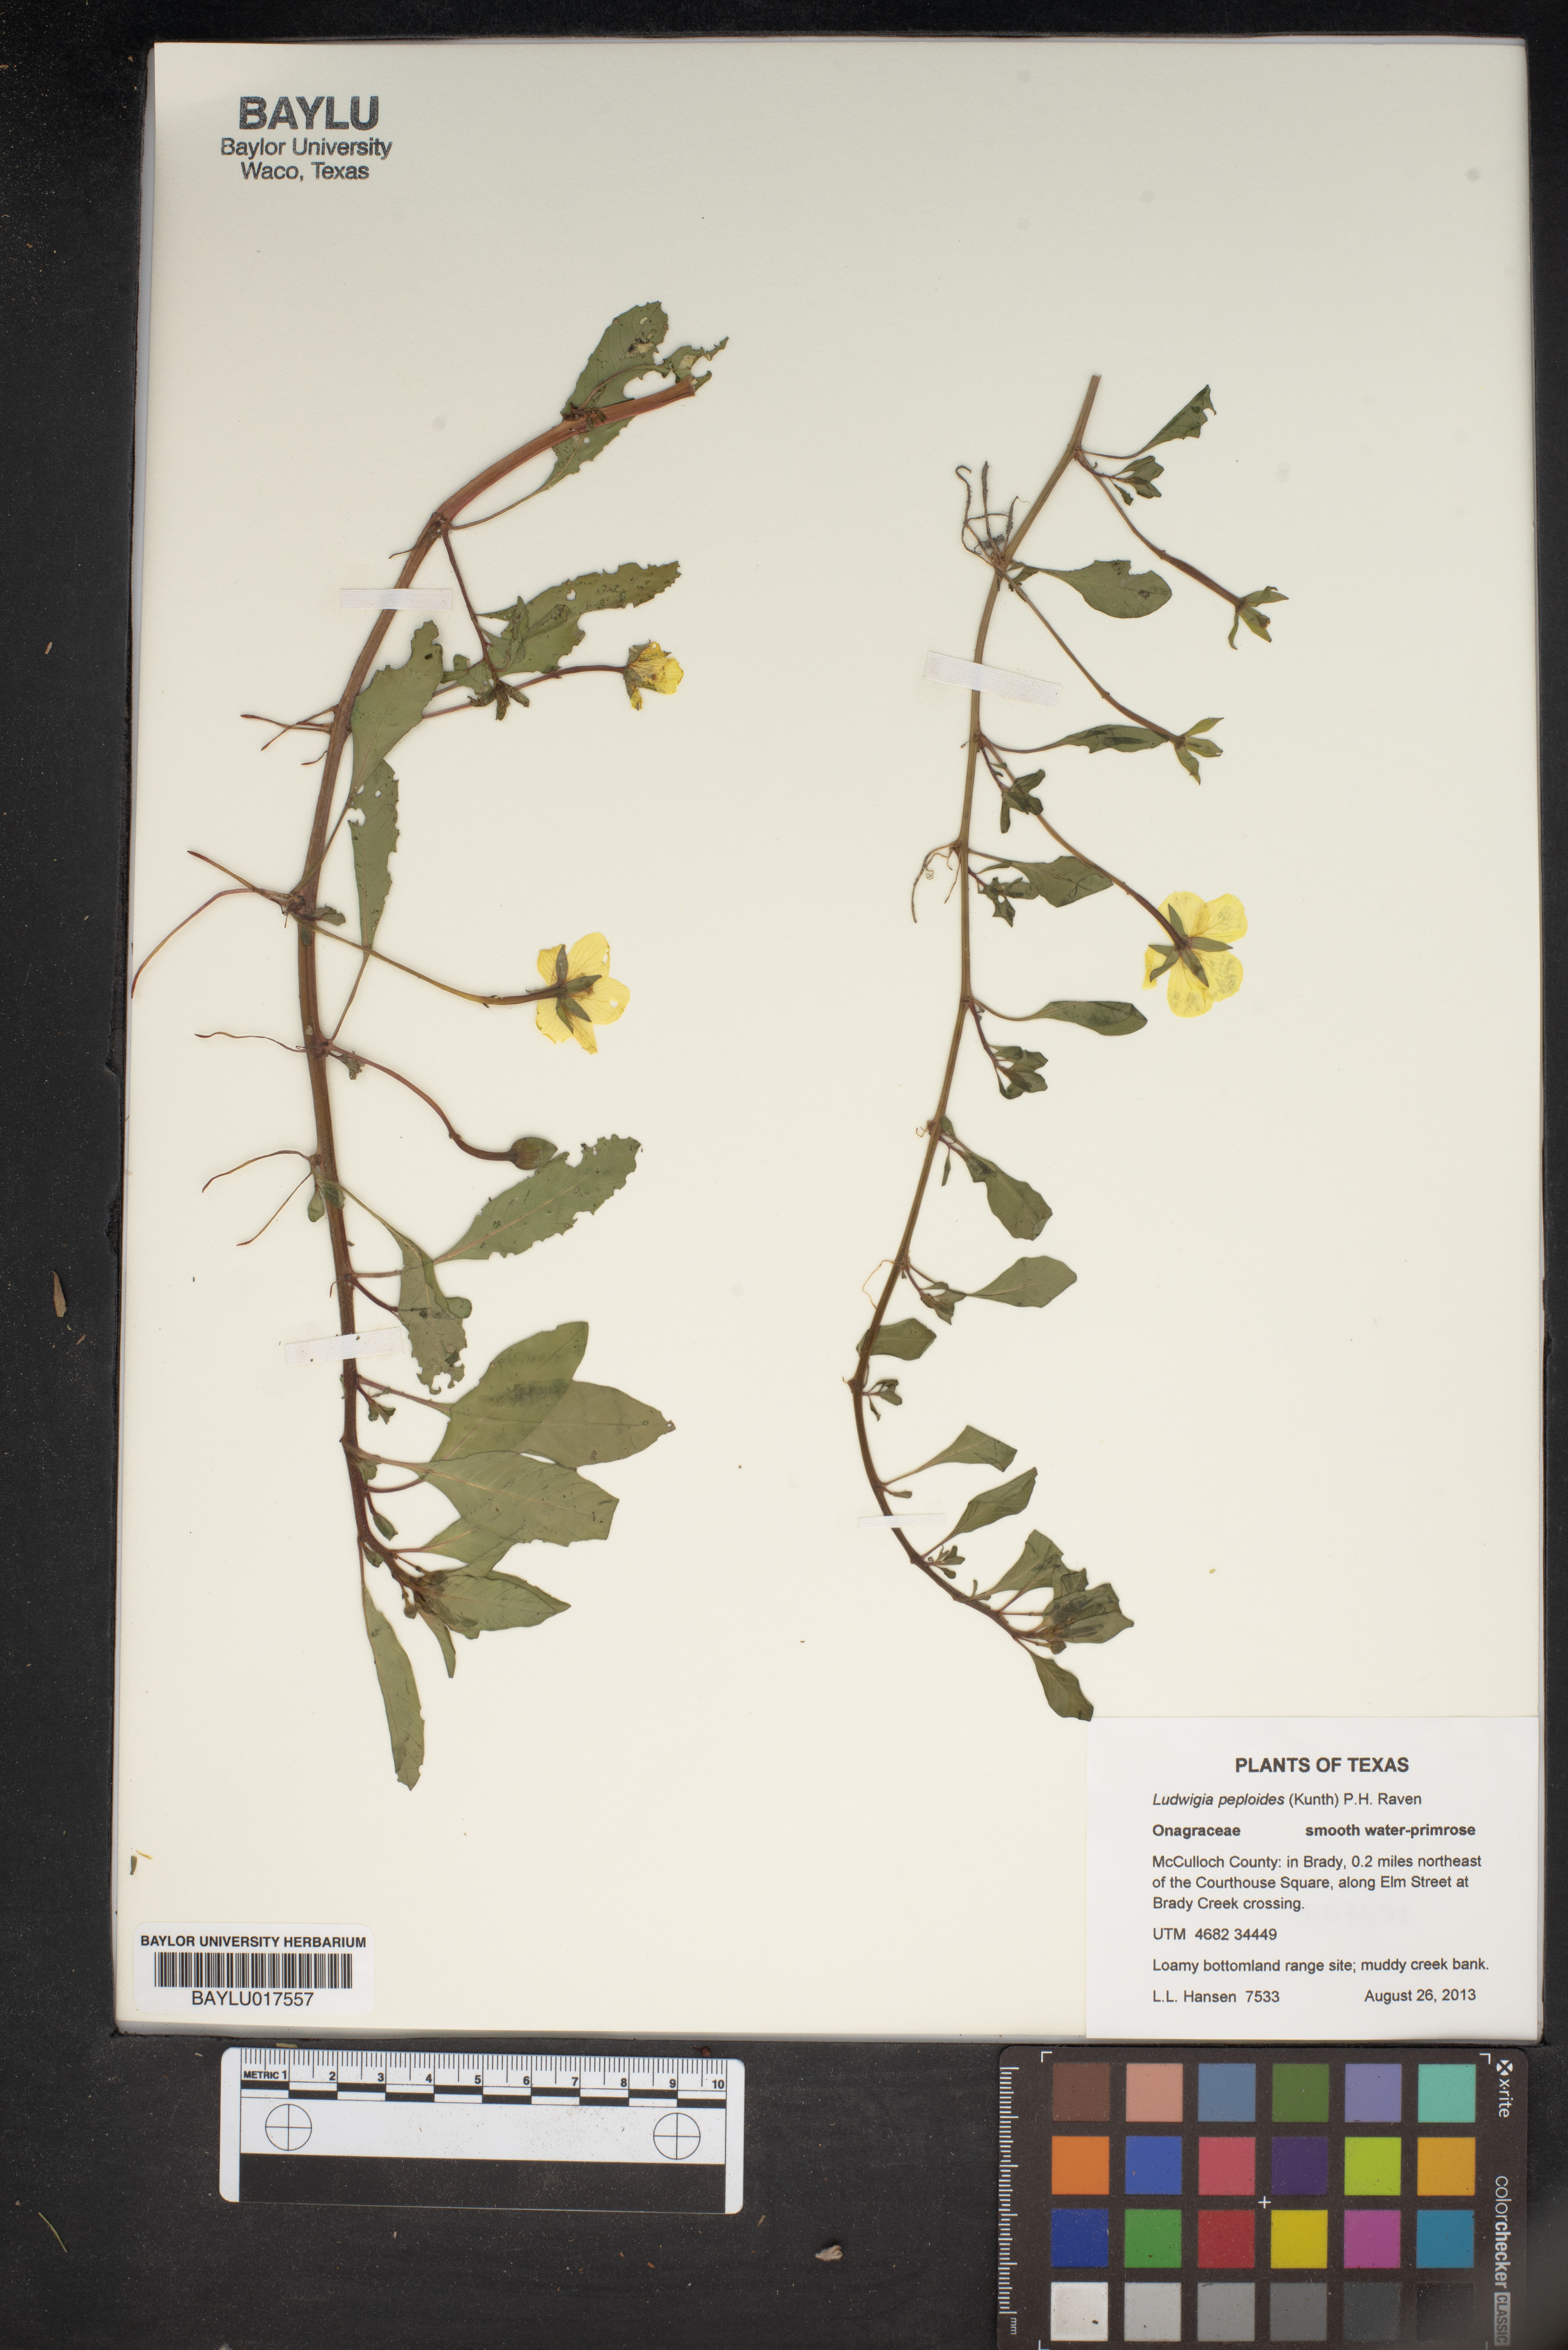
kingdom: Plantae
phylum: Tracheophyta
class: Magnoliopsida
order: Myrtales
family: Onagraceae
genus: Ludwigia
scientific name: Ludwigia peploides
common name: Floating primrose-willow
